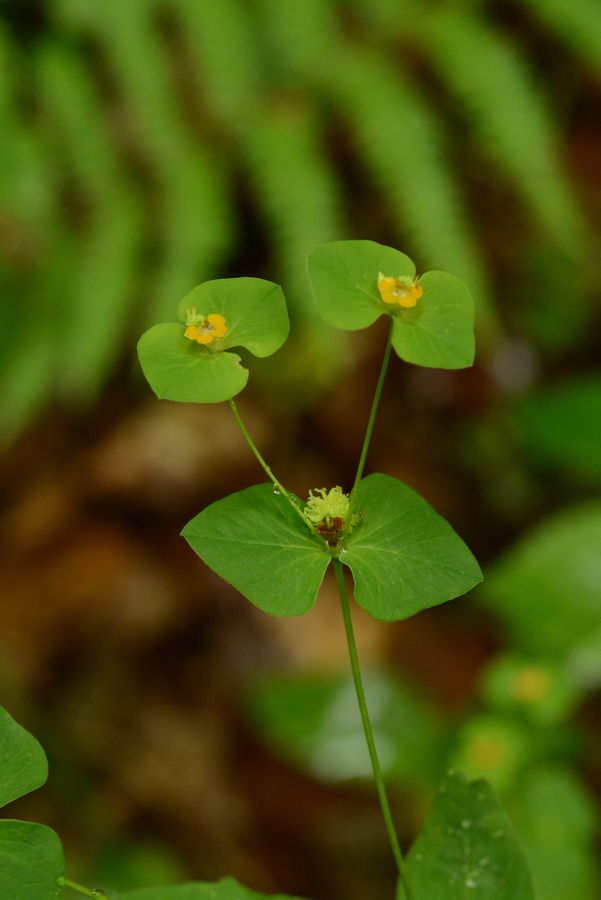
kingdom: Plantae
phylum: Tracheophyta
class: Magnoliopsida
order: Malpighiales
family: Euphorbiaceae
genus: Euphorbia
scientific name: Euphorbia squamosa
